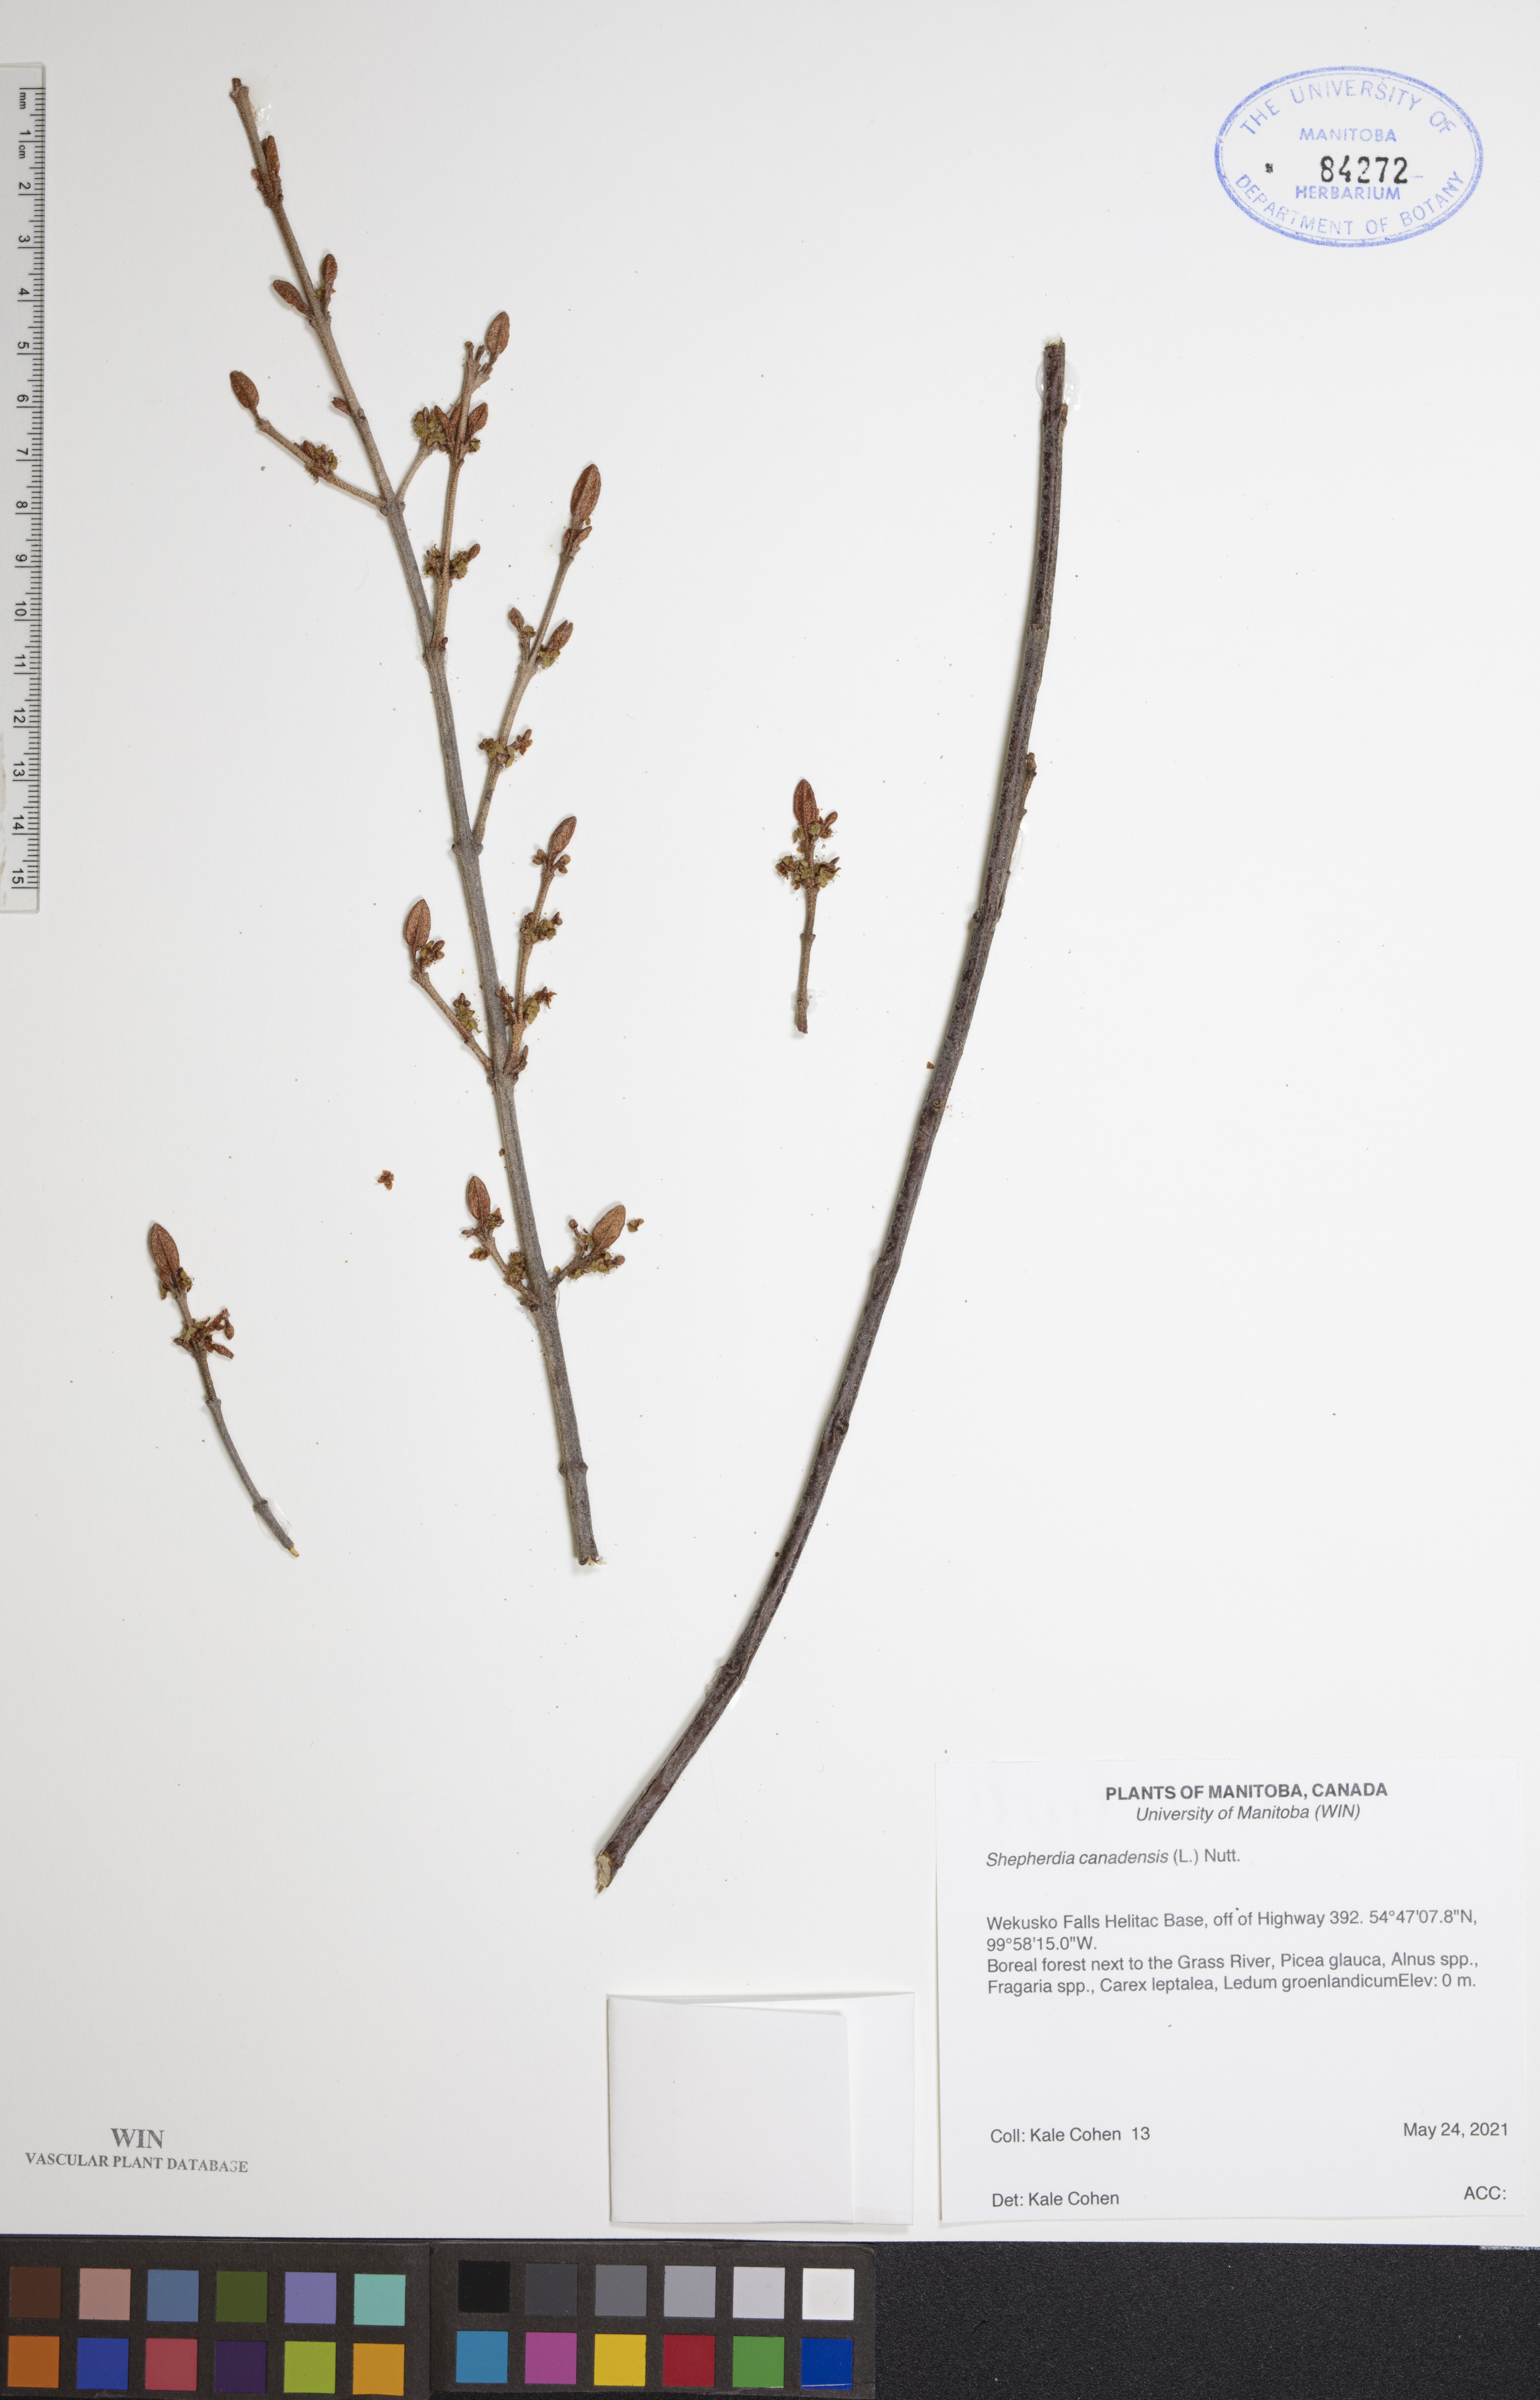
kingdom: Plantae
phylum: Tracheophyta
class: Magnoliopsida
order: Rosales
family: Elaeagnaceae
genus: Shepherdia
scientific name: Shepherdia canadensis
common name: Soapberry
